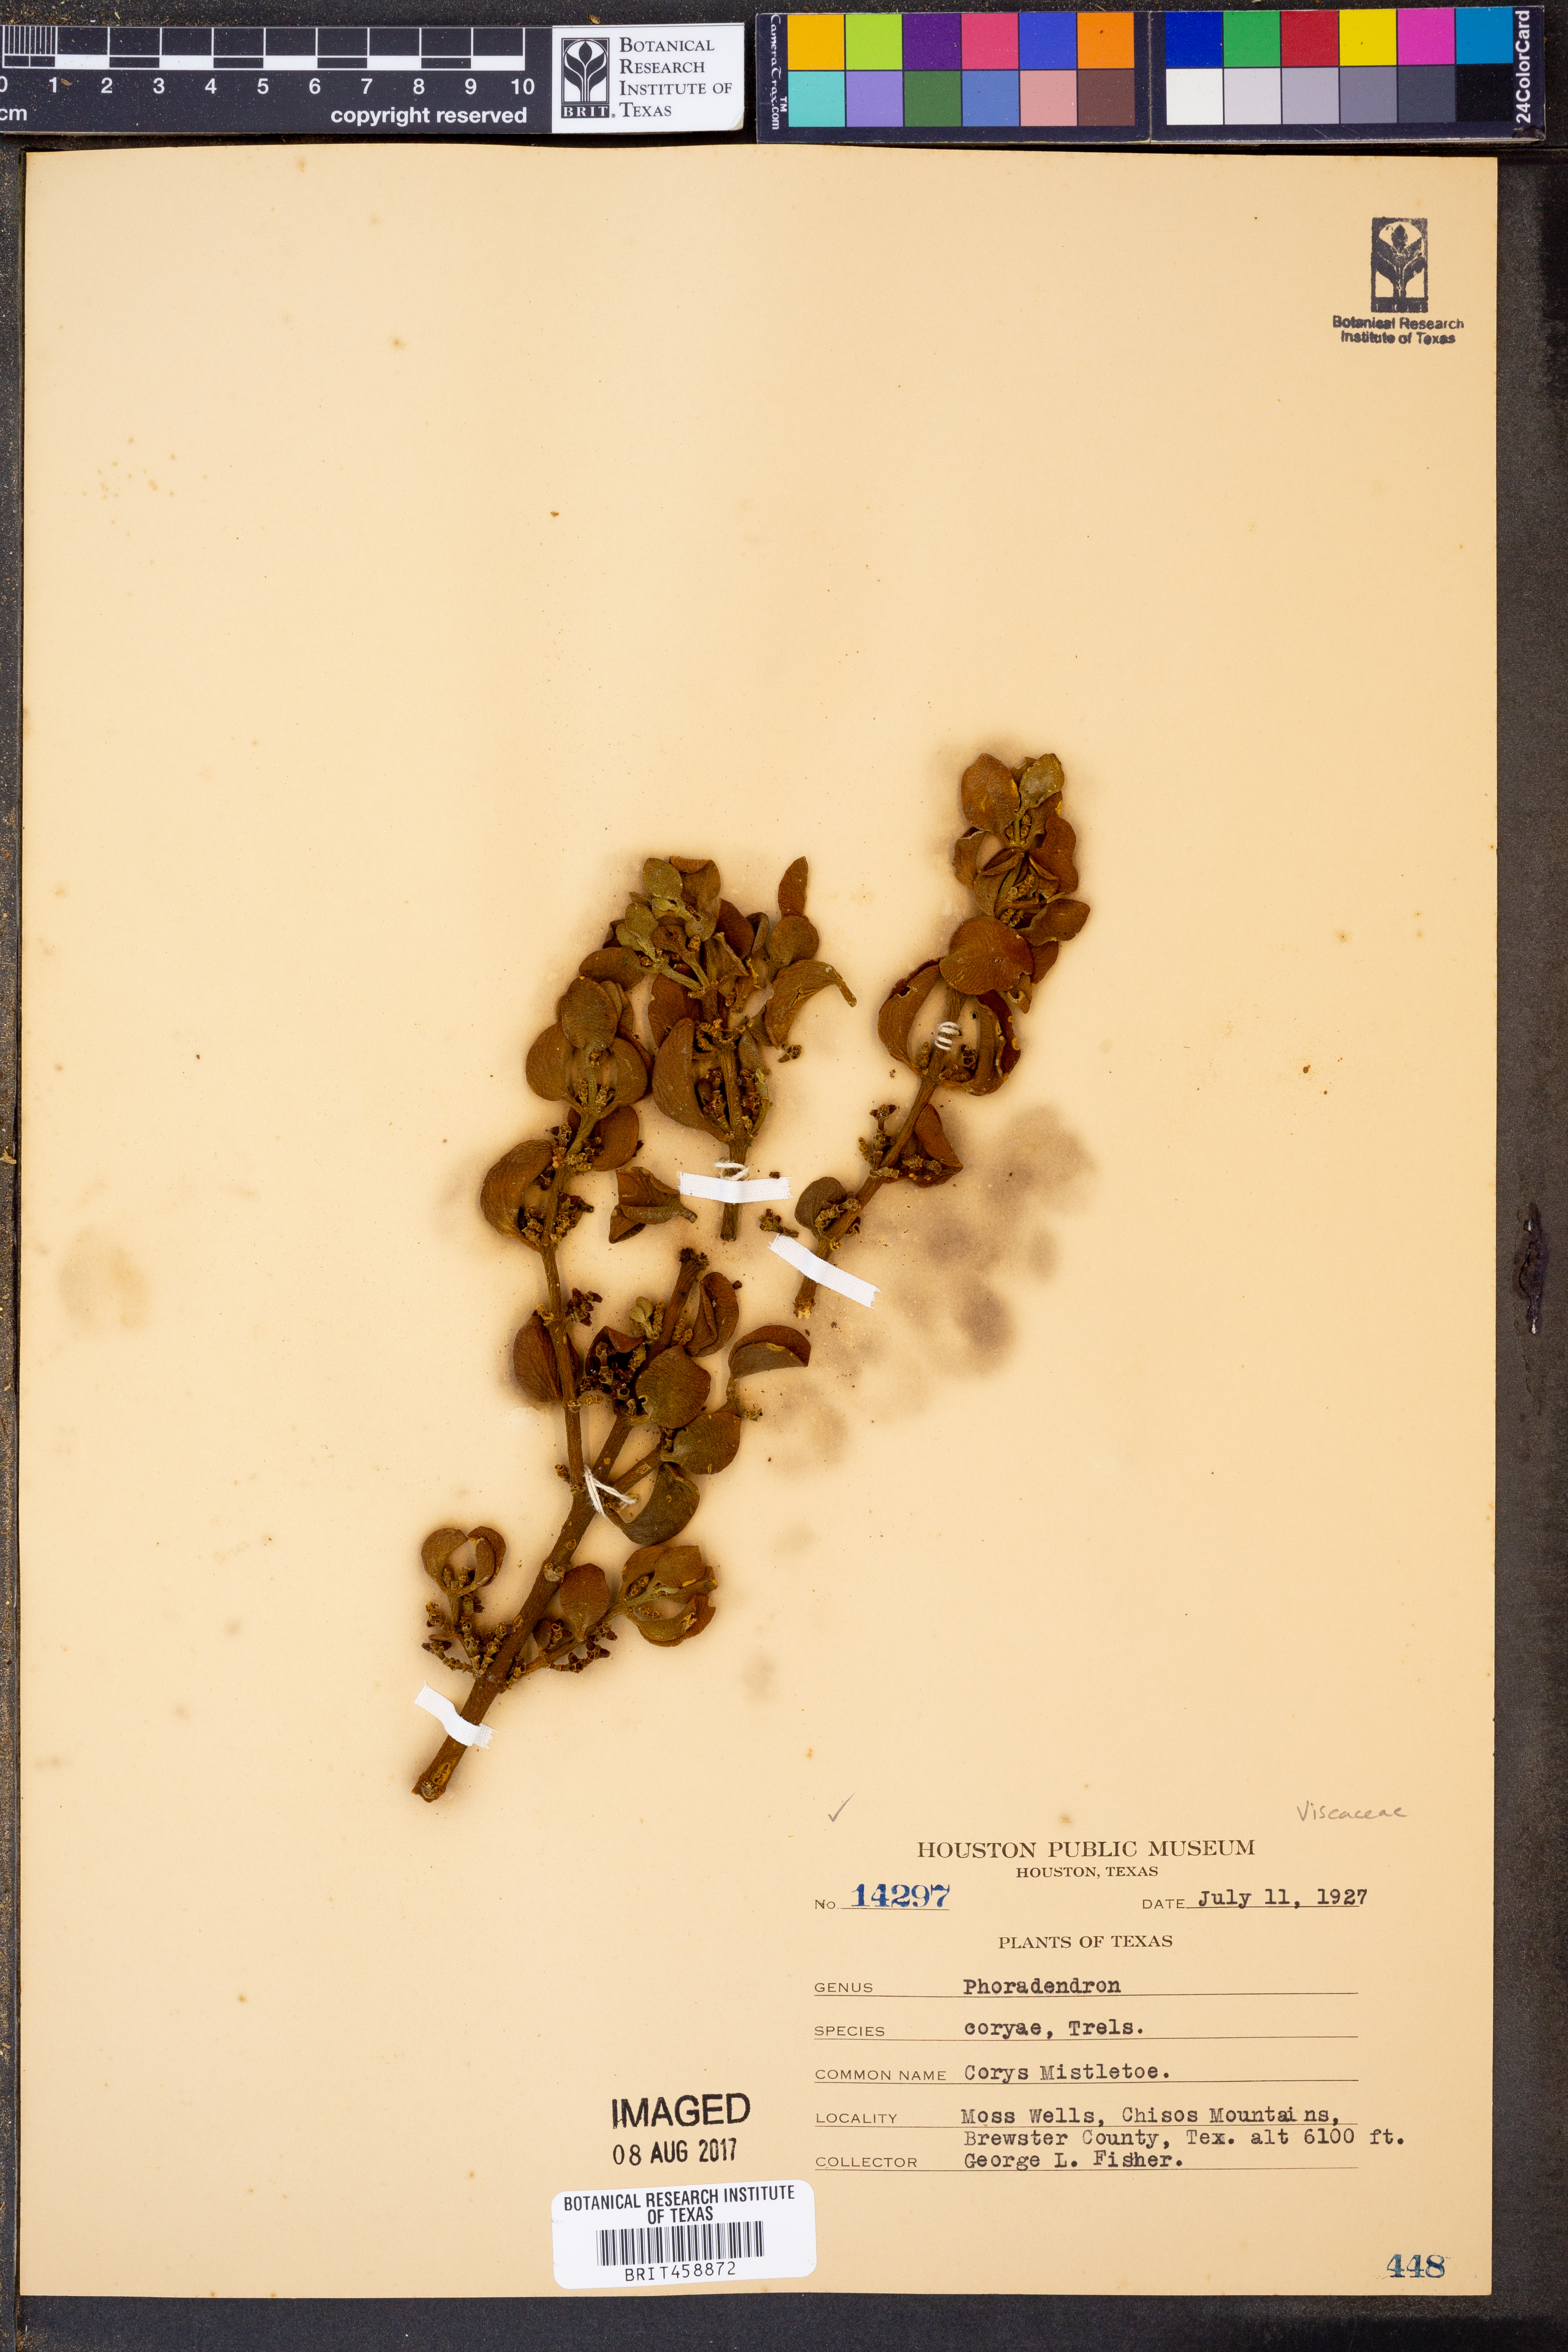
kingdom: Plantae
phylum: Tracheophyta
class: Magnoliopsida
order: Santalales
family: Viscaceae
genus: Phoradendron
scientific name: Phoradendron coryae
